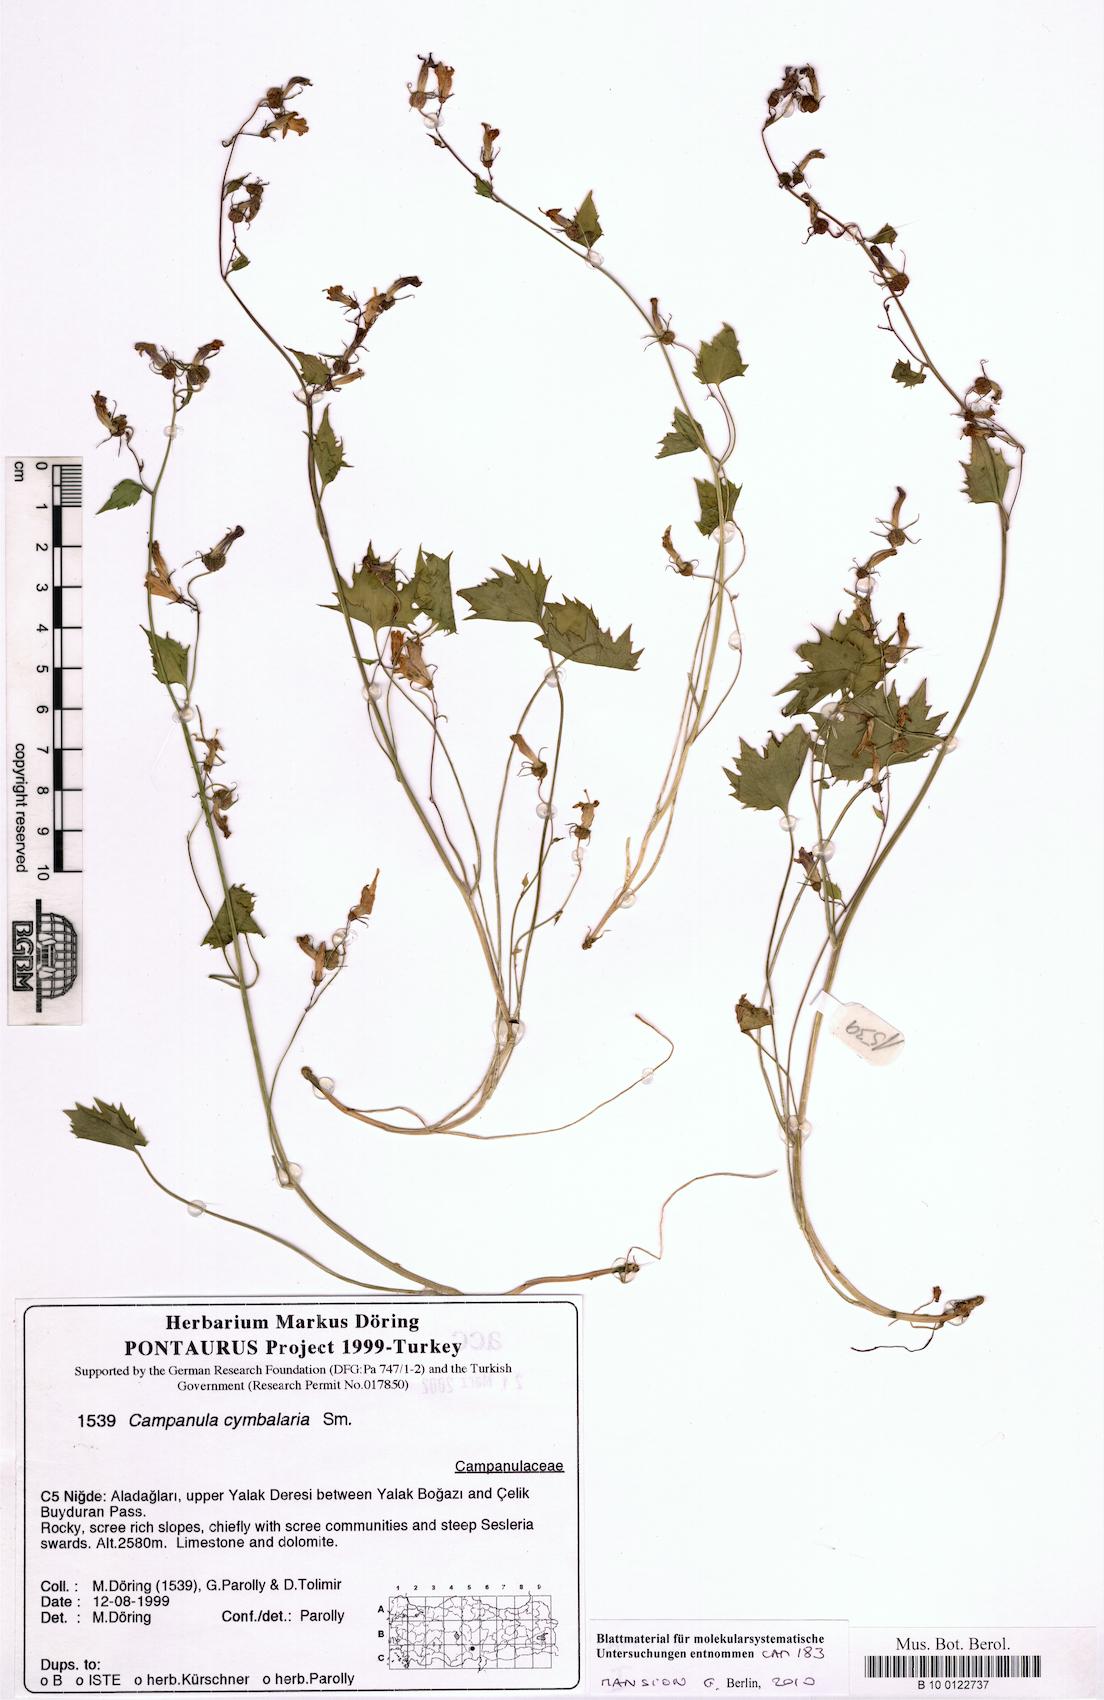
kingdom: Plantae
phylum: Tracheophyta
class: Magnoliopsida
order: Asterales
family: Campanulaceae
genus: Campanula
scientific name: Campanula cymbalaria
